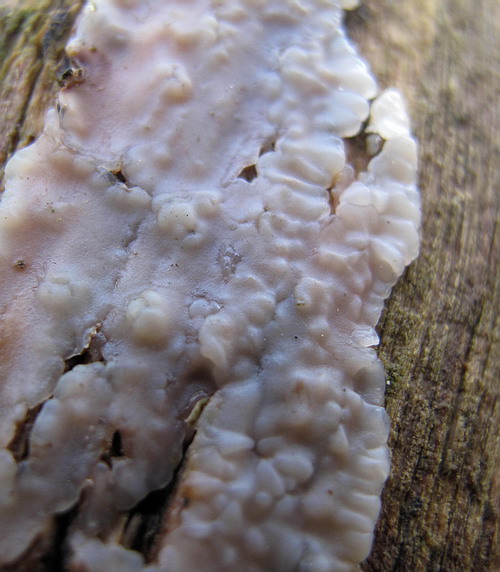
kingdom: Fungi
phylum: Basidiomycota
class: Agaricomycetes
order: Auriculariales
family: Auriculariaceae
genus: Exidia
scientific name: Exidia thuretiana
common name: hvidlig bævretop
